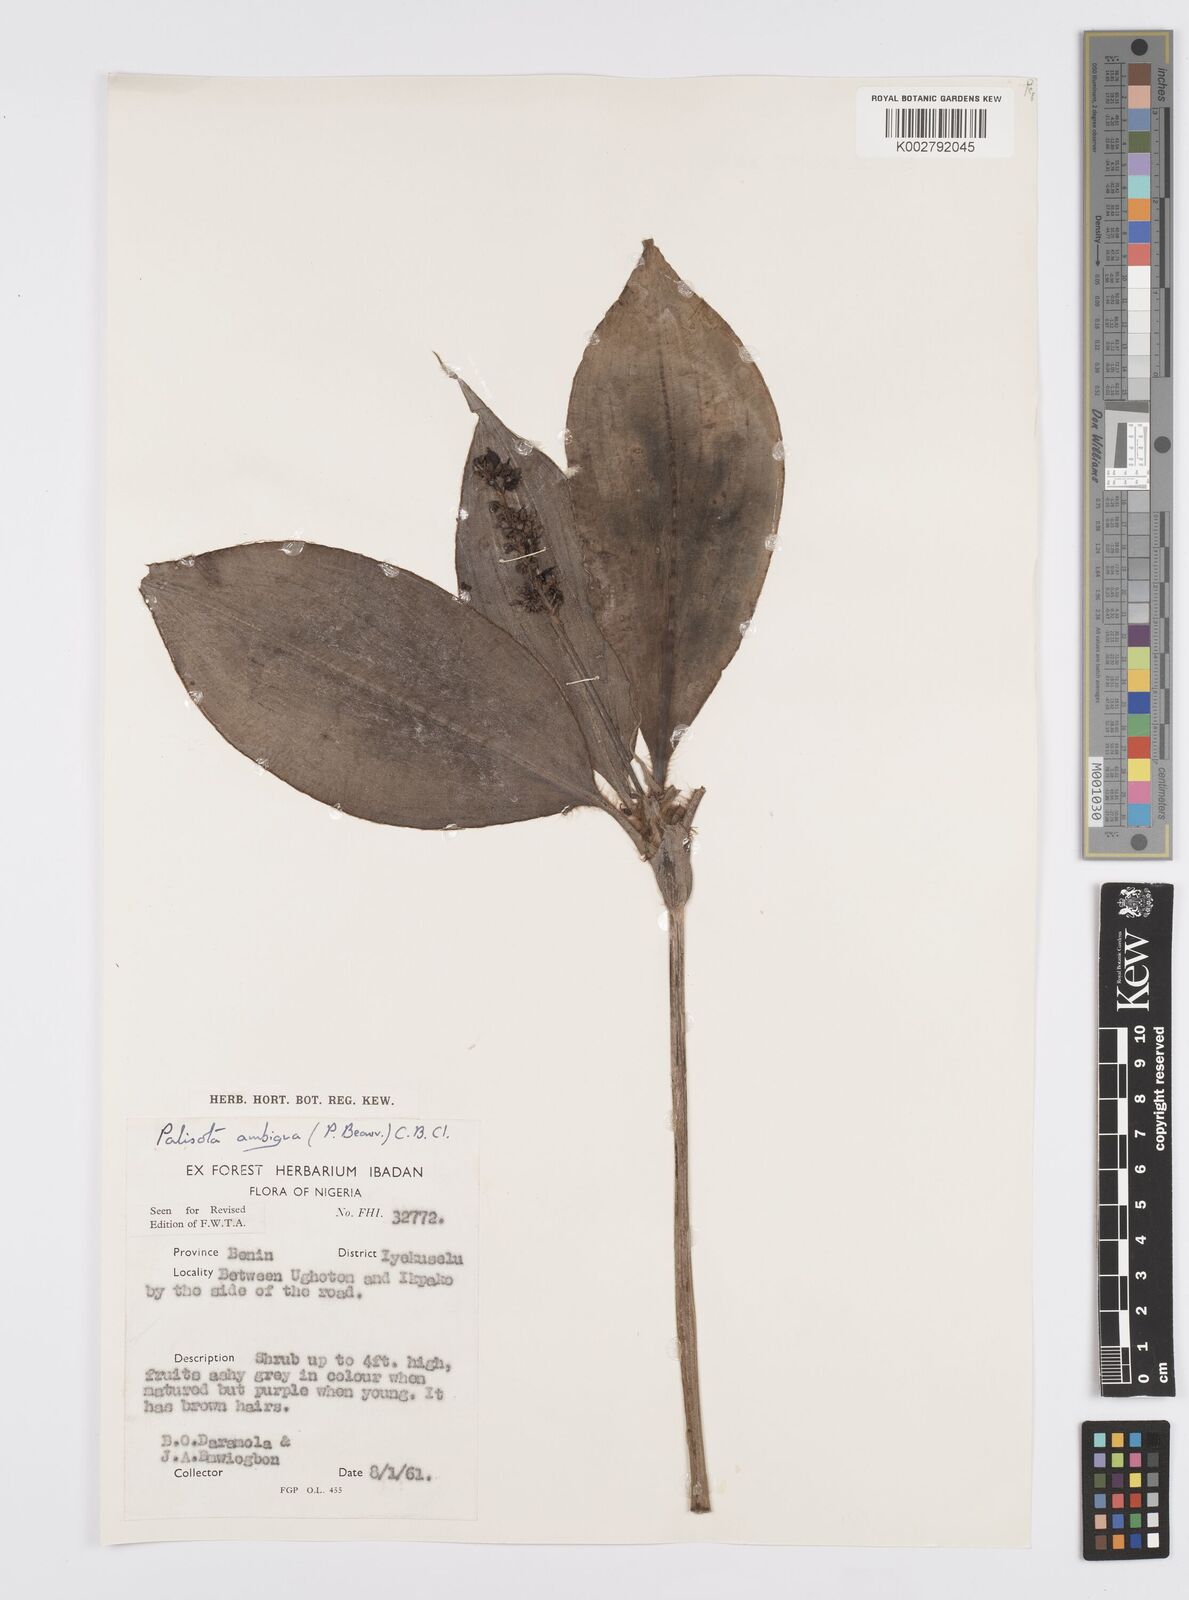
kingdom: Plantae
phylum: Tracheophyta
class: Liliopsida
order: Commelinales
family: Commelinaceae
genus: Palisota
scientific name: Palisota ambigua
